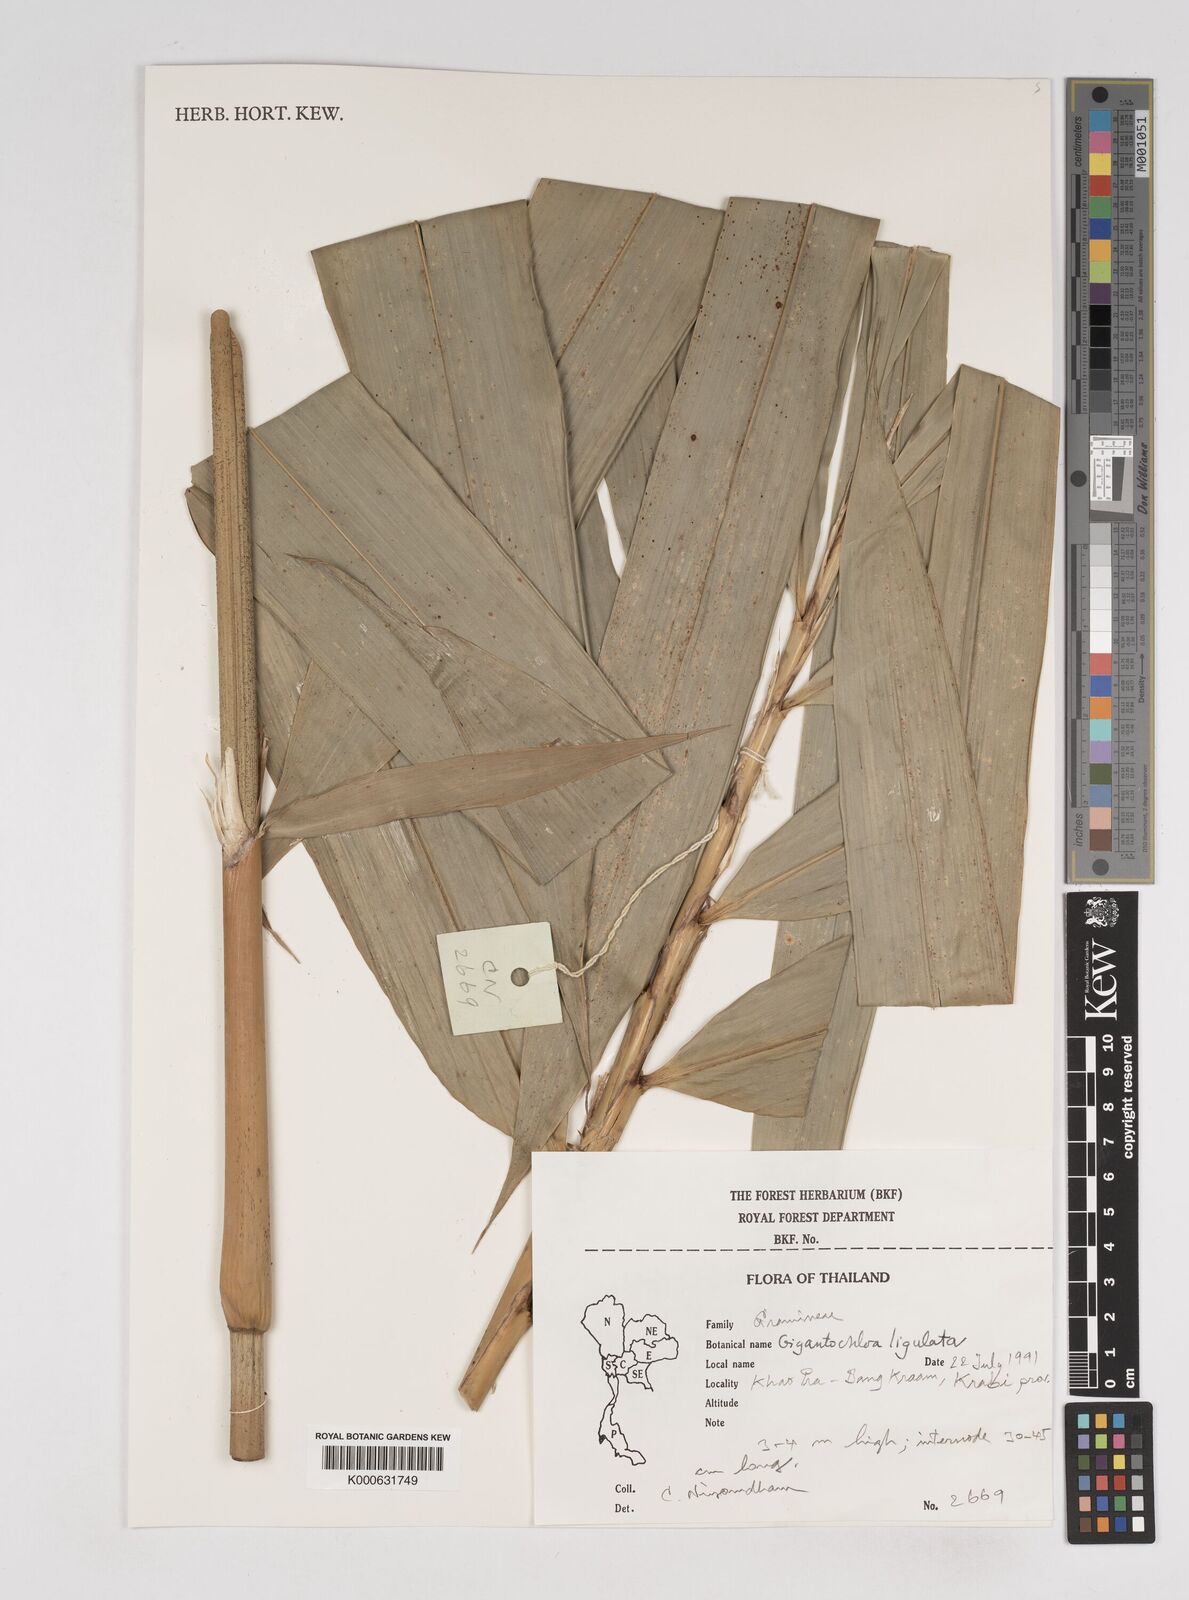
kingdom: Plantae
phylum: Tracheophyta
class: Liliopsida
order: Poales
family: Poaceae
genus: Gigantochloa
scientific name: Gigantochloa ligulata
